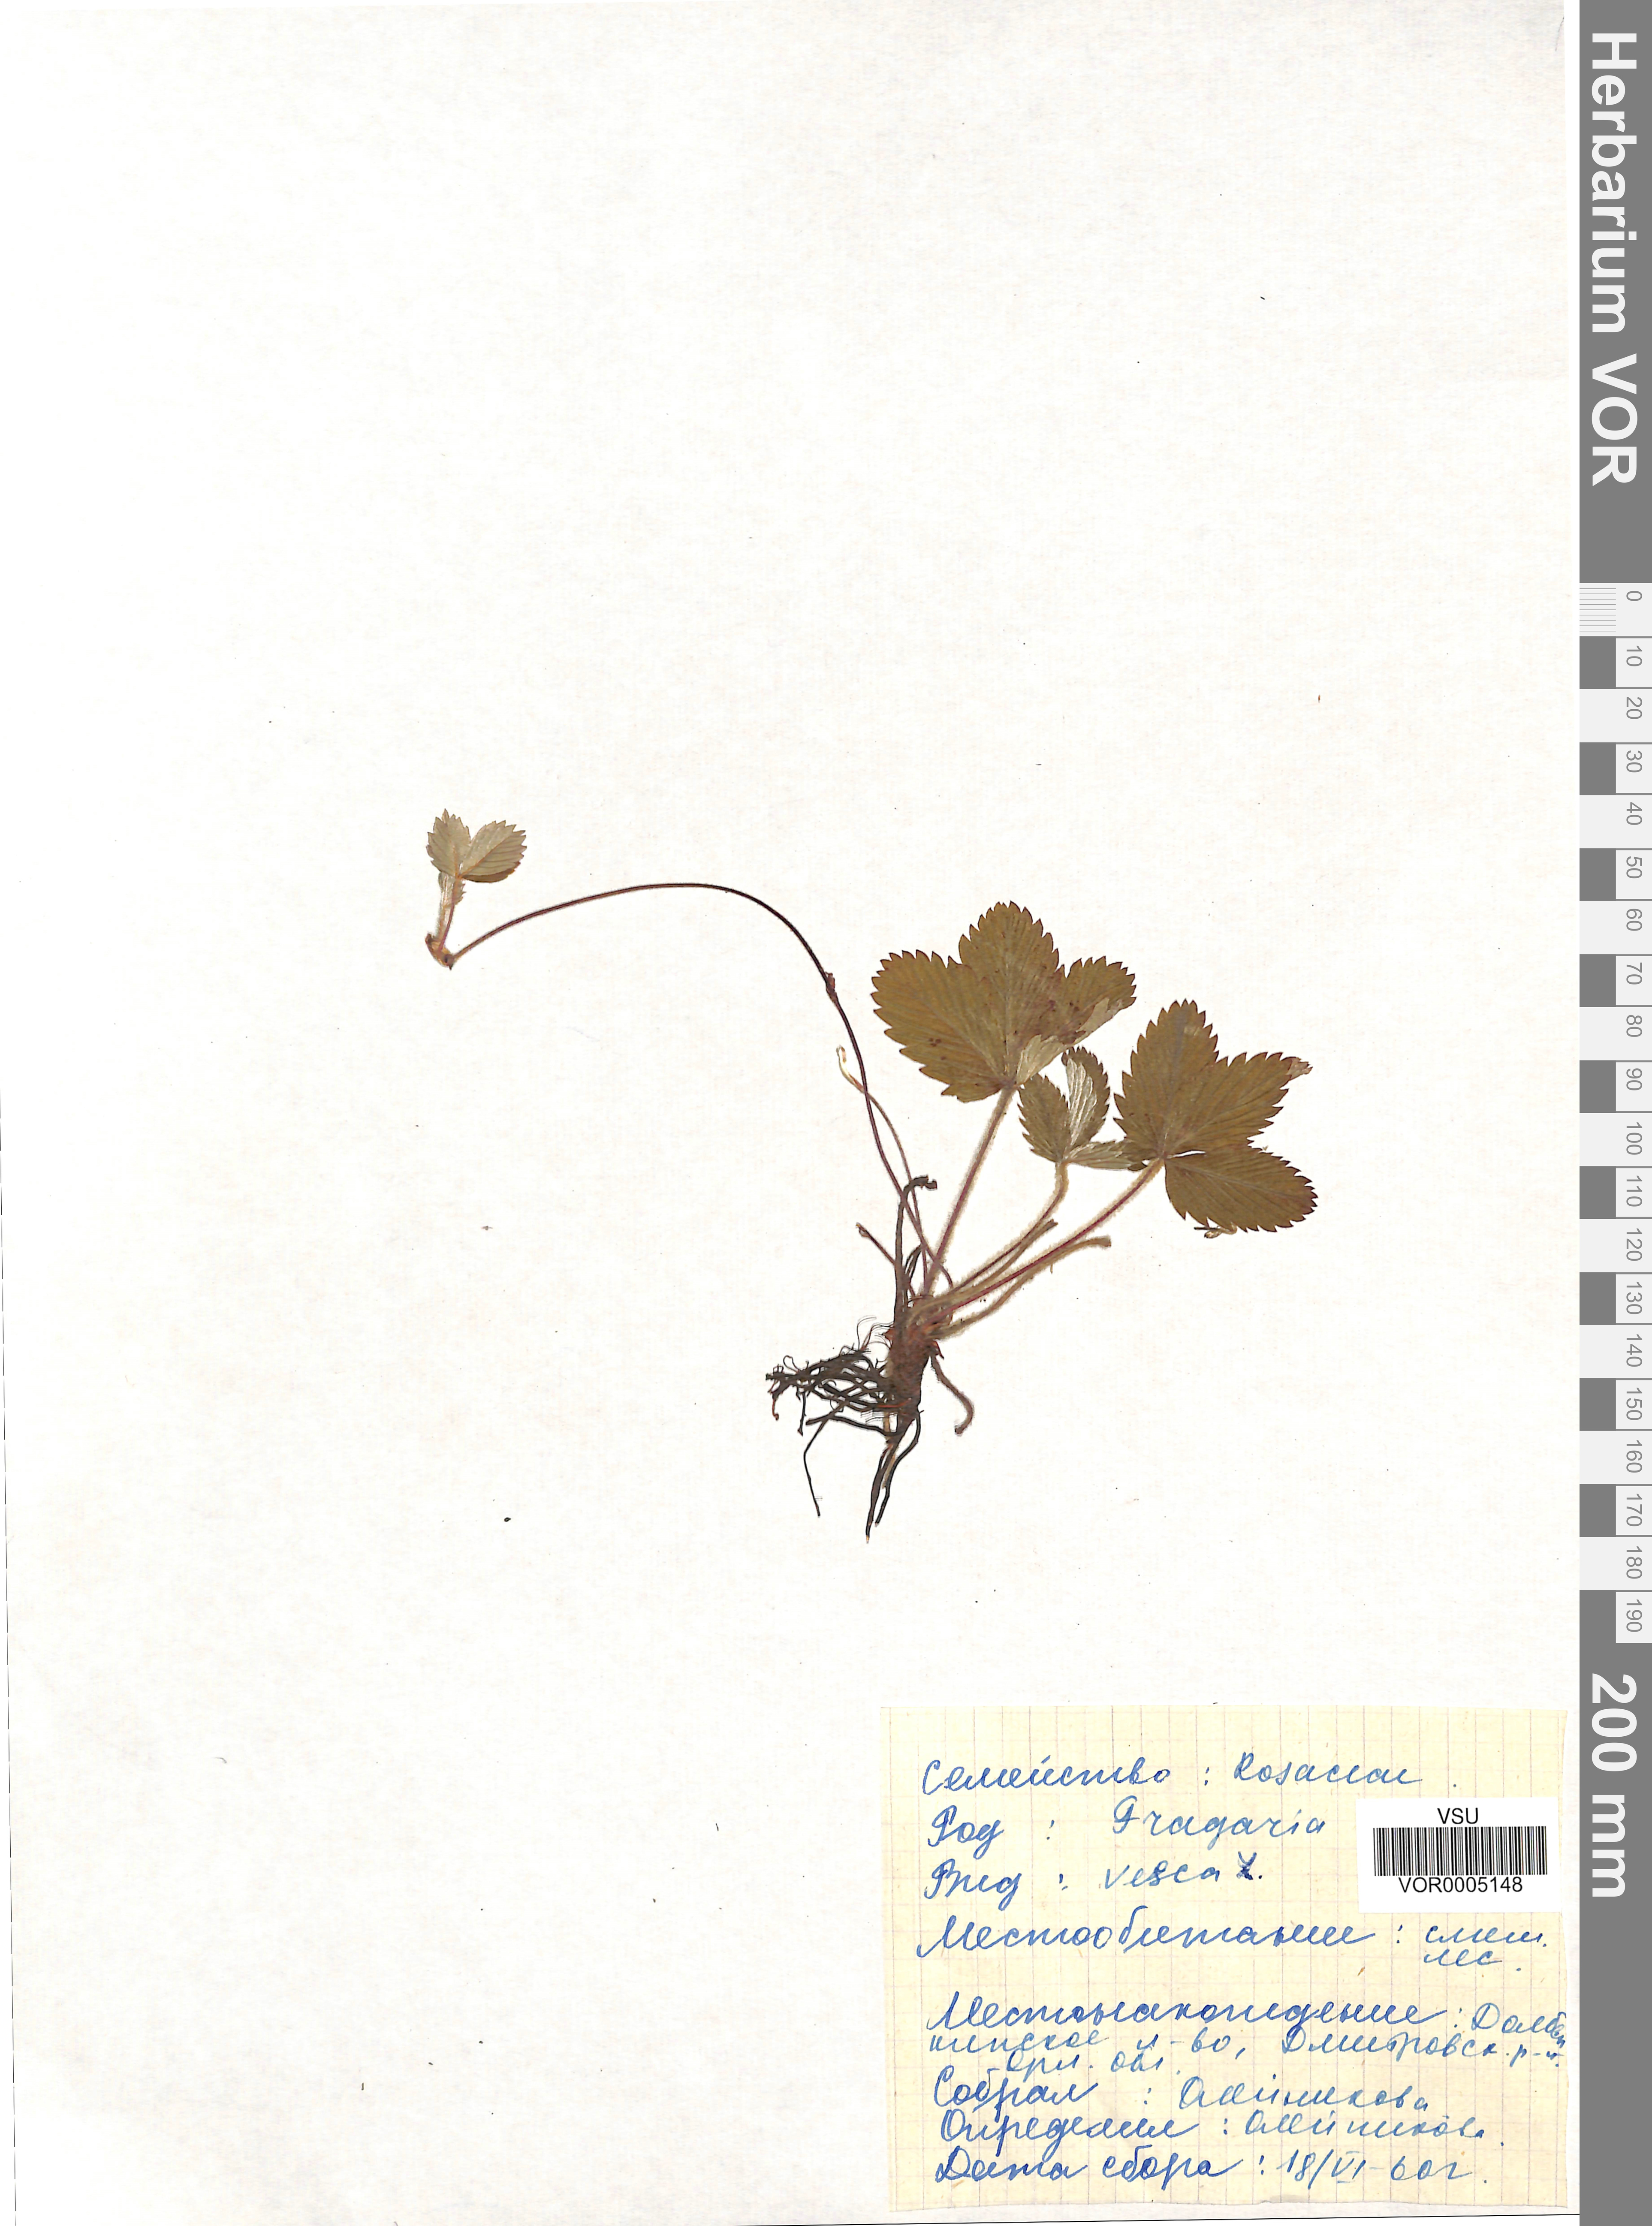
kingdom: Plantae
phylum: Tracheophyta
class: Magnoliopsida
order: Rosales
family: Rosaceae
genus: Fragaria
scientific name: Fragaria vesca
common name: Wild strawberry
